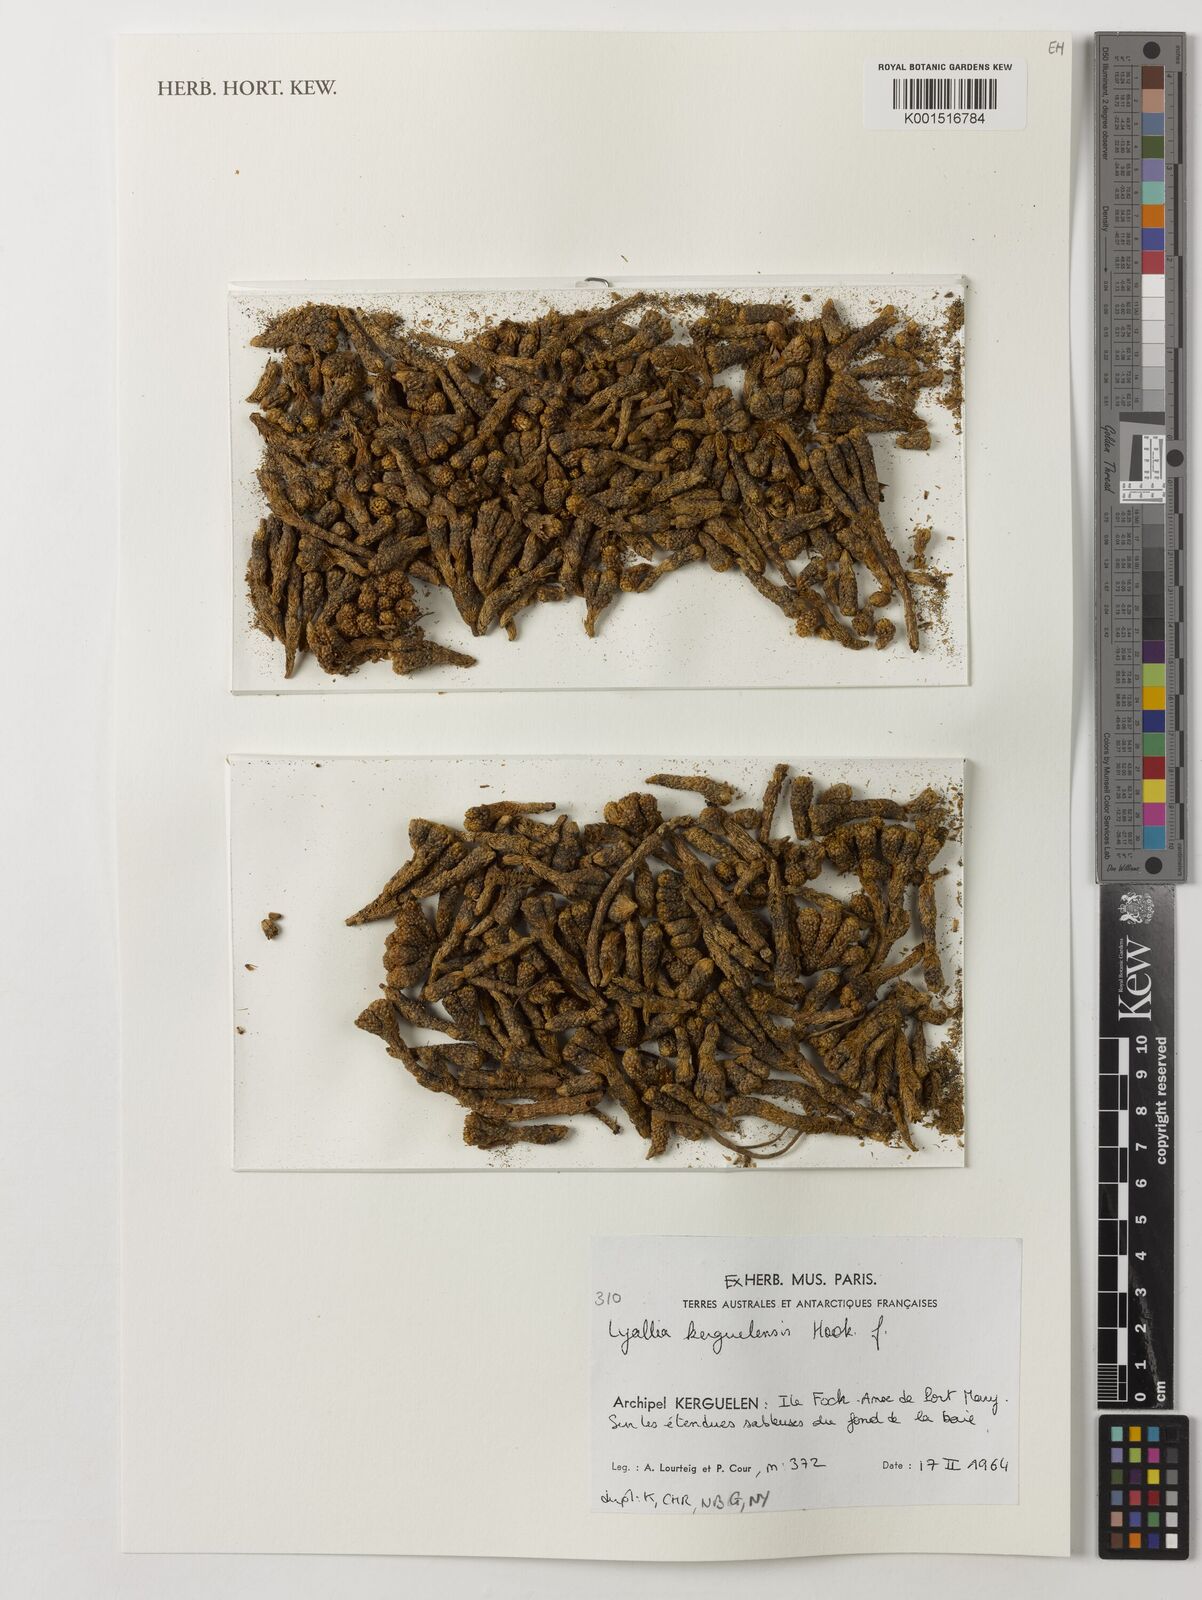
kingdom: Plantae
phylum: Tracheophyta
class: Magnoliopsida
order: Caryophyllales
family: Montiaceae
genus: Lyallia
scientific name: Lyallia kerguelensis
